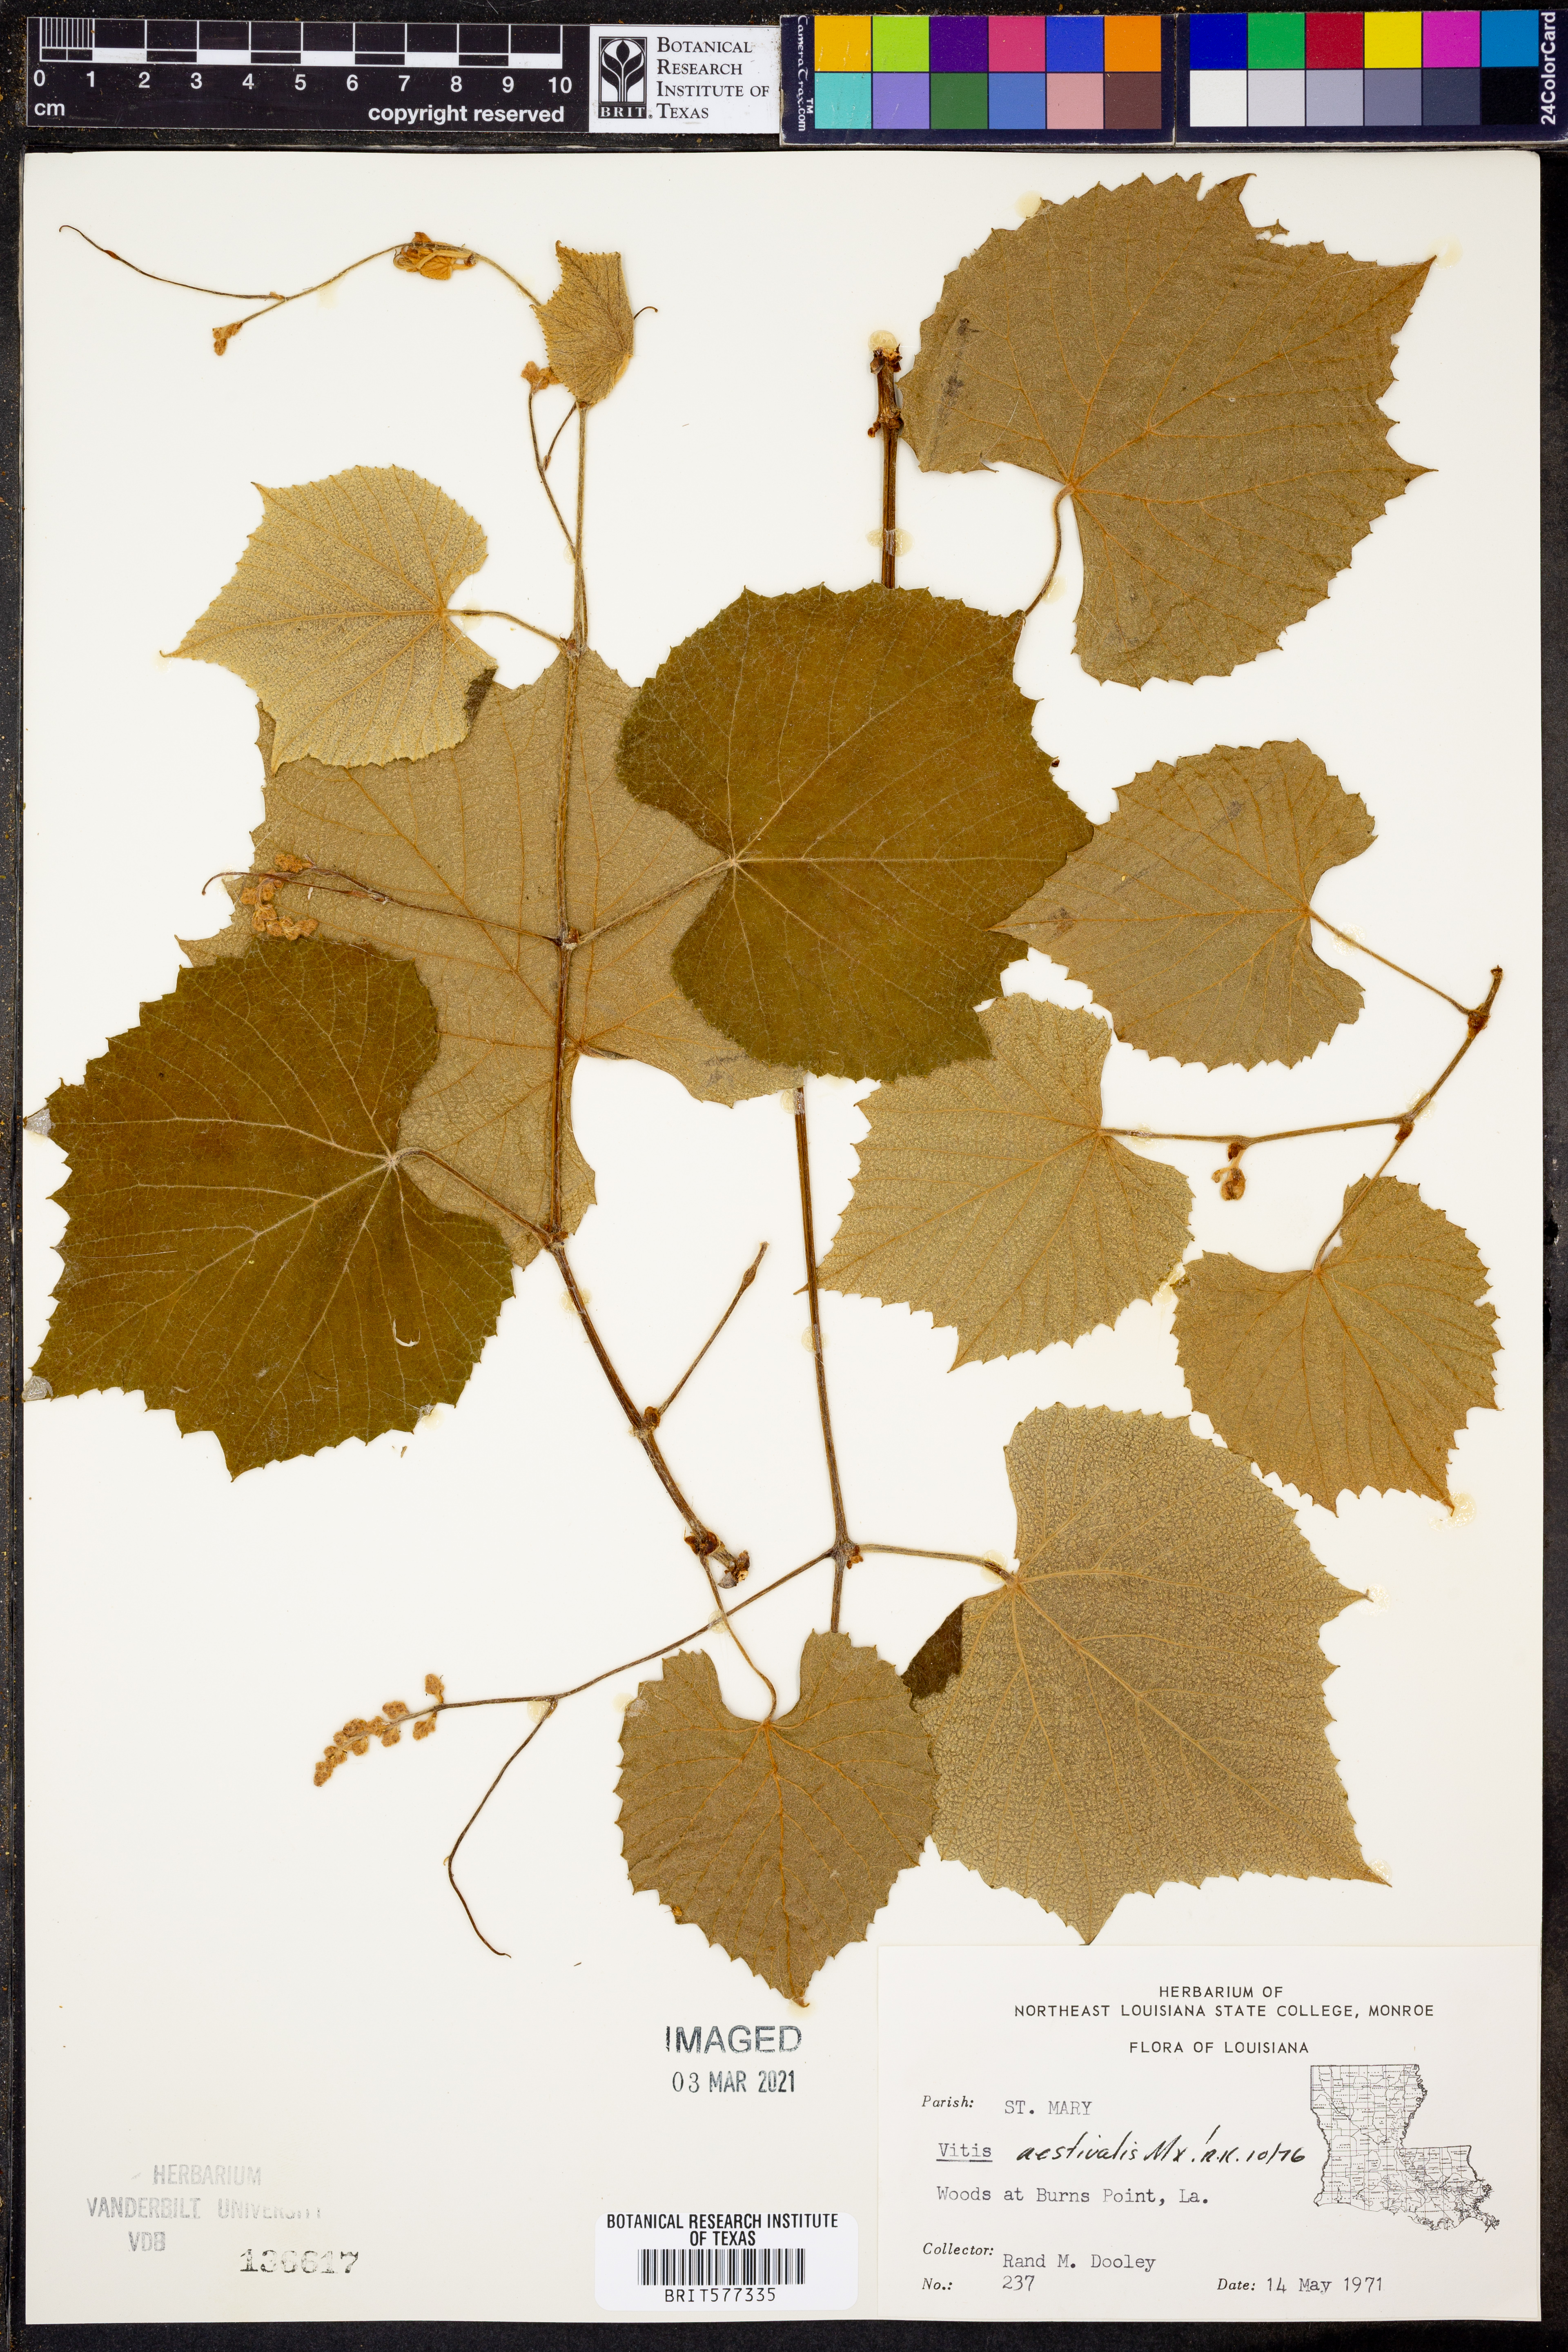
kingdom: Plantae
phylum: Tracheophyta
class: Magnoliopsida
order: Vitales
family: Vitaceae
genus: Vitis
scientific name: Vitis aestivalis
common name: Pigeon grape
